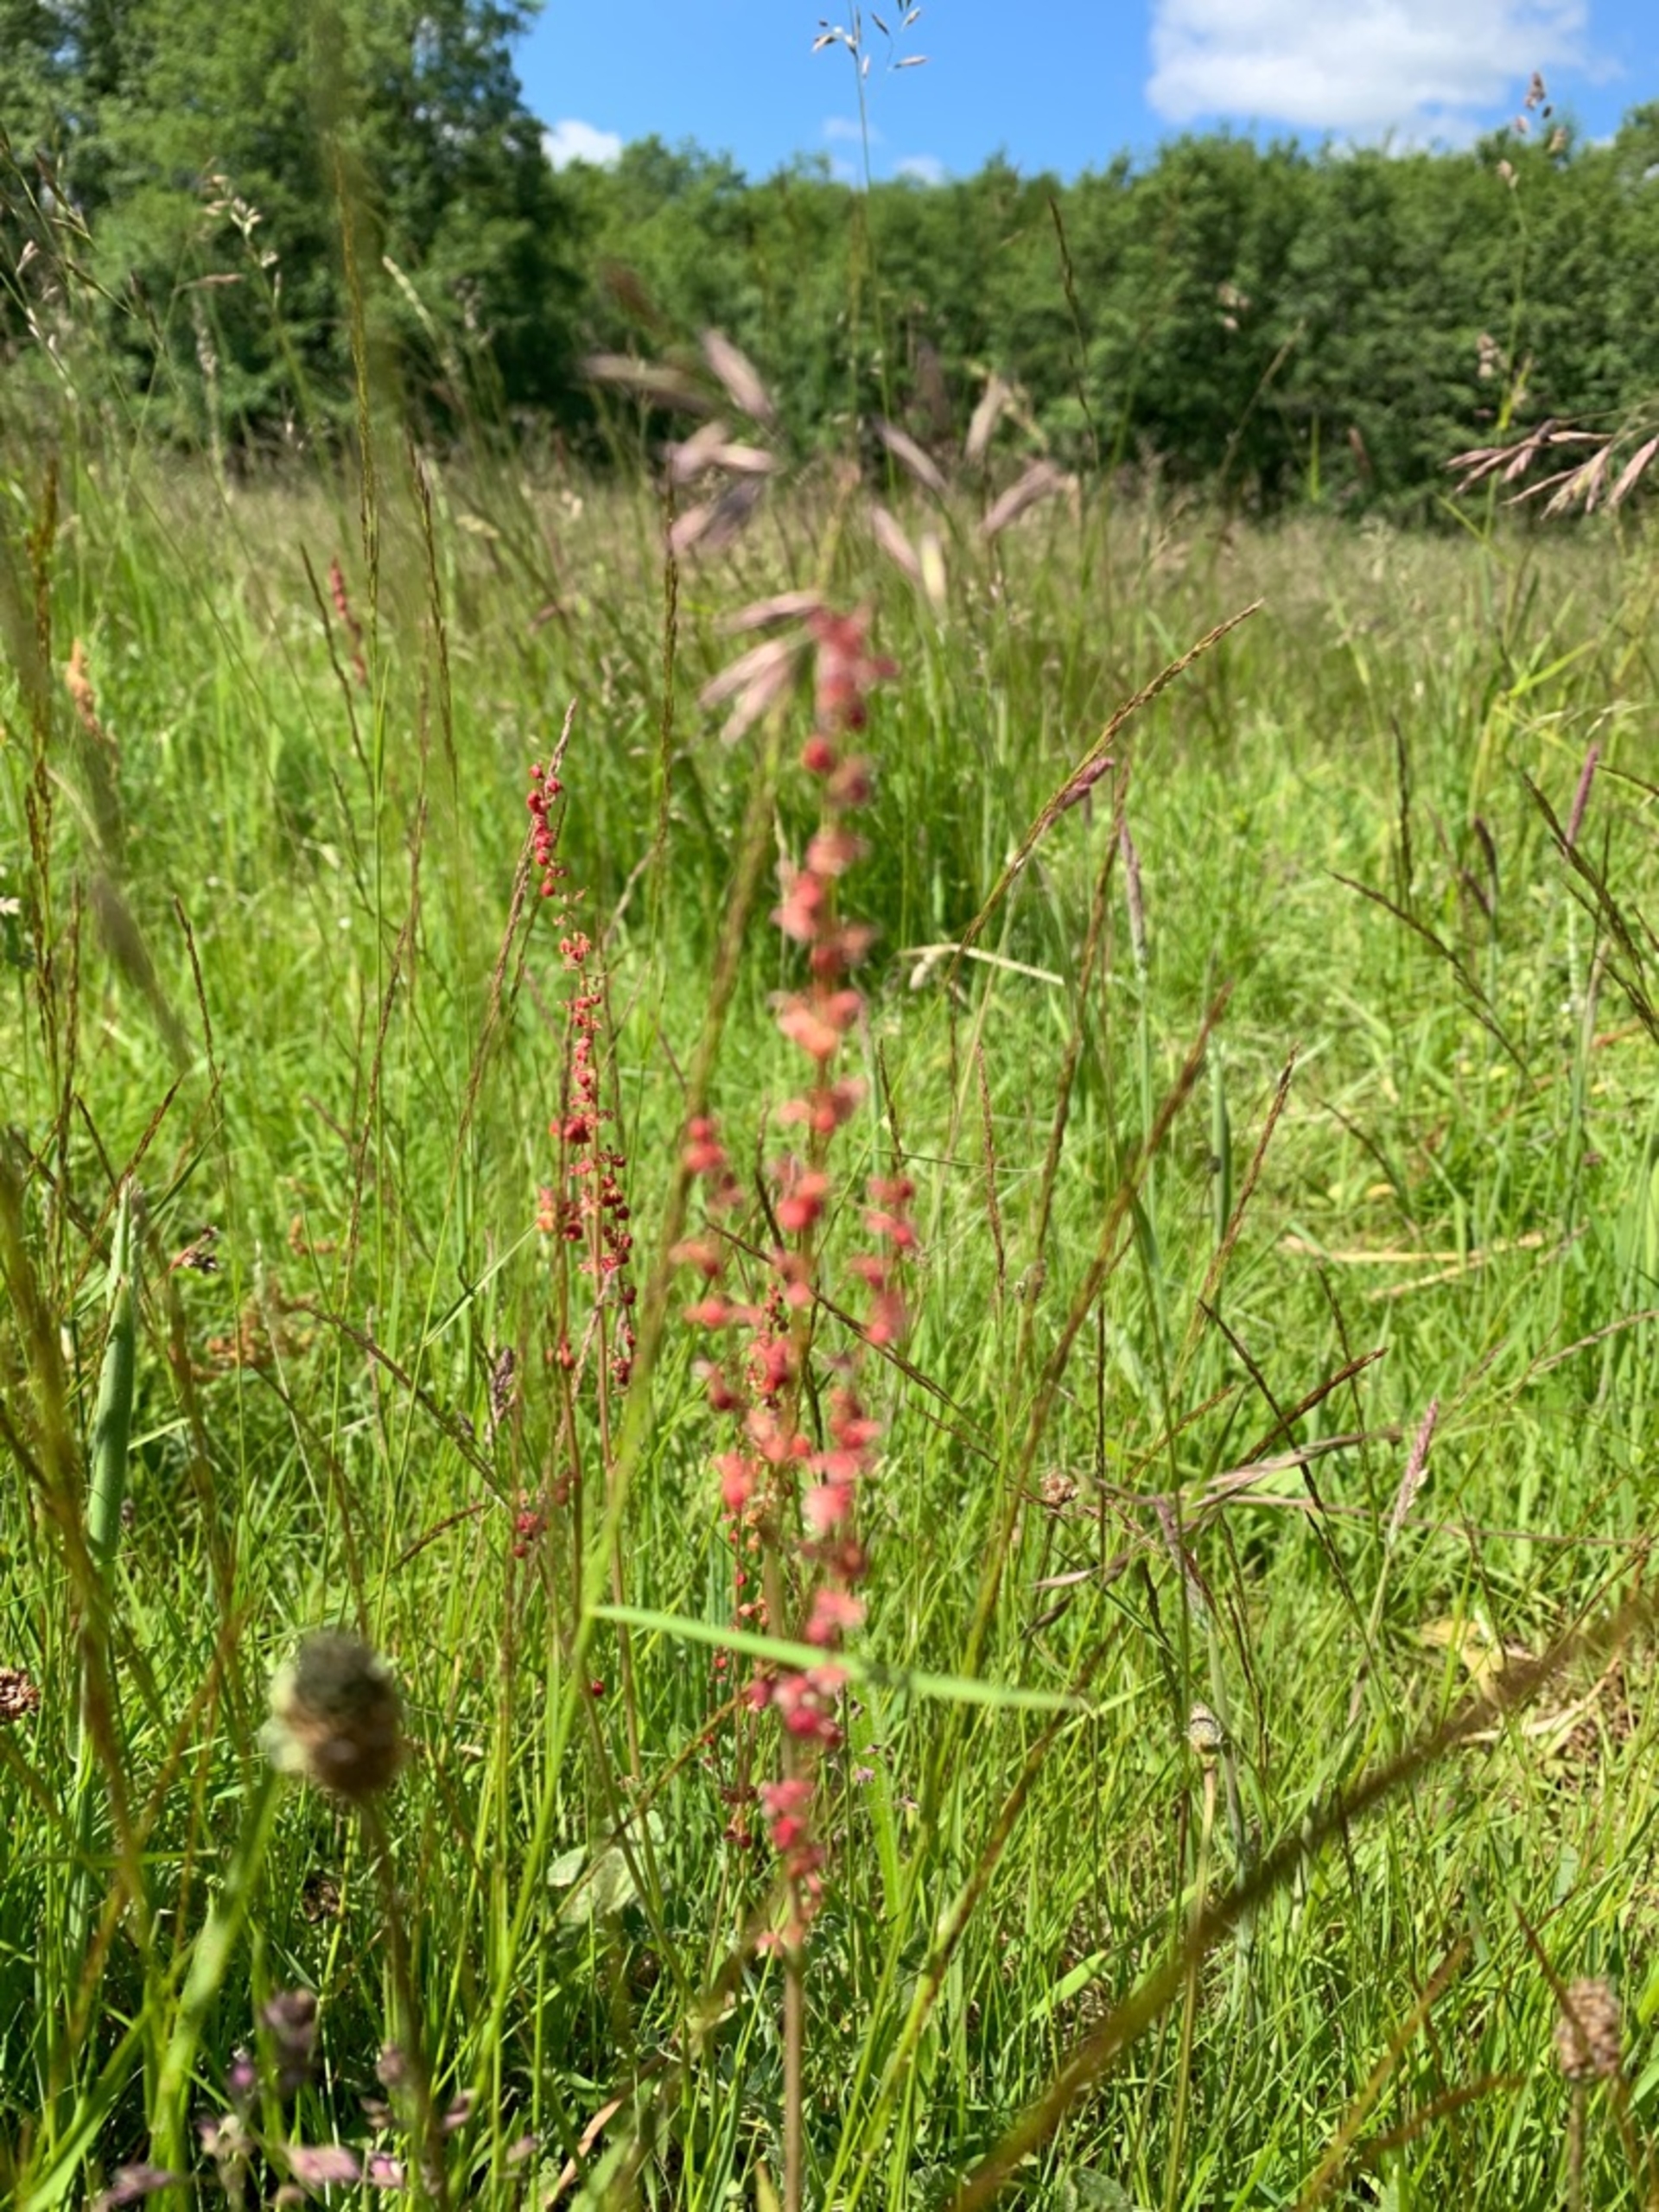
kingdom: Plantae
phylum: Tracheophyta
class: Magnoliopsida
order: Caryophyllales
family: Polygonaceae
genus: Rumex
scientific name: Rumex acetosa
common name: Almindelig syre
